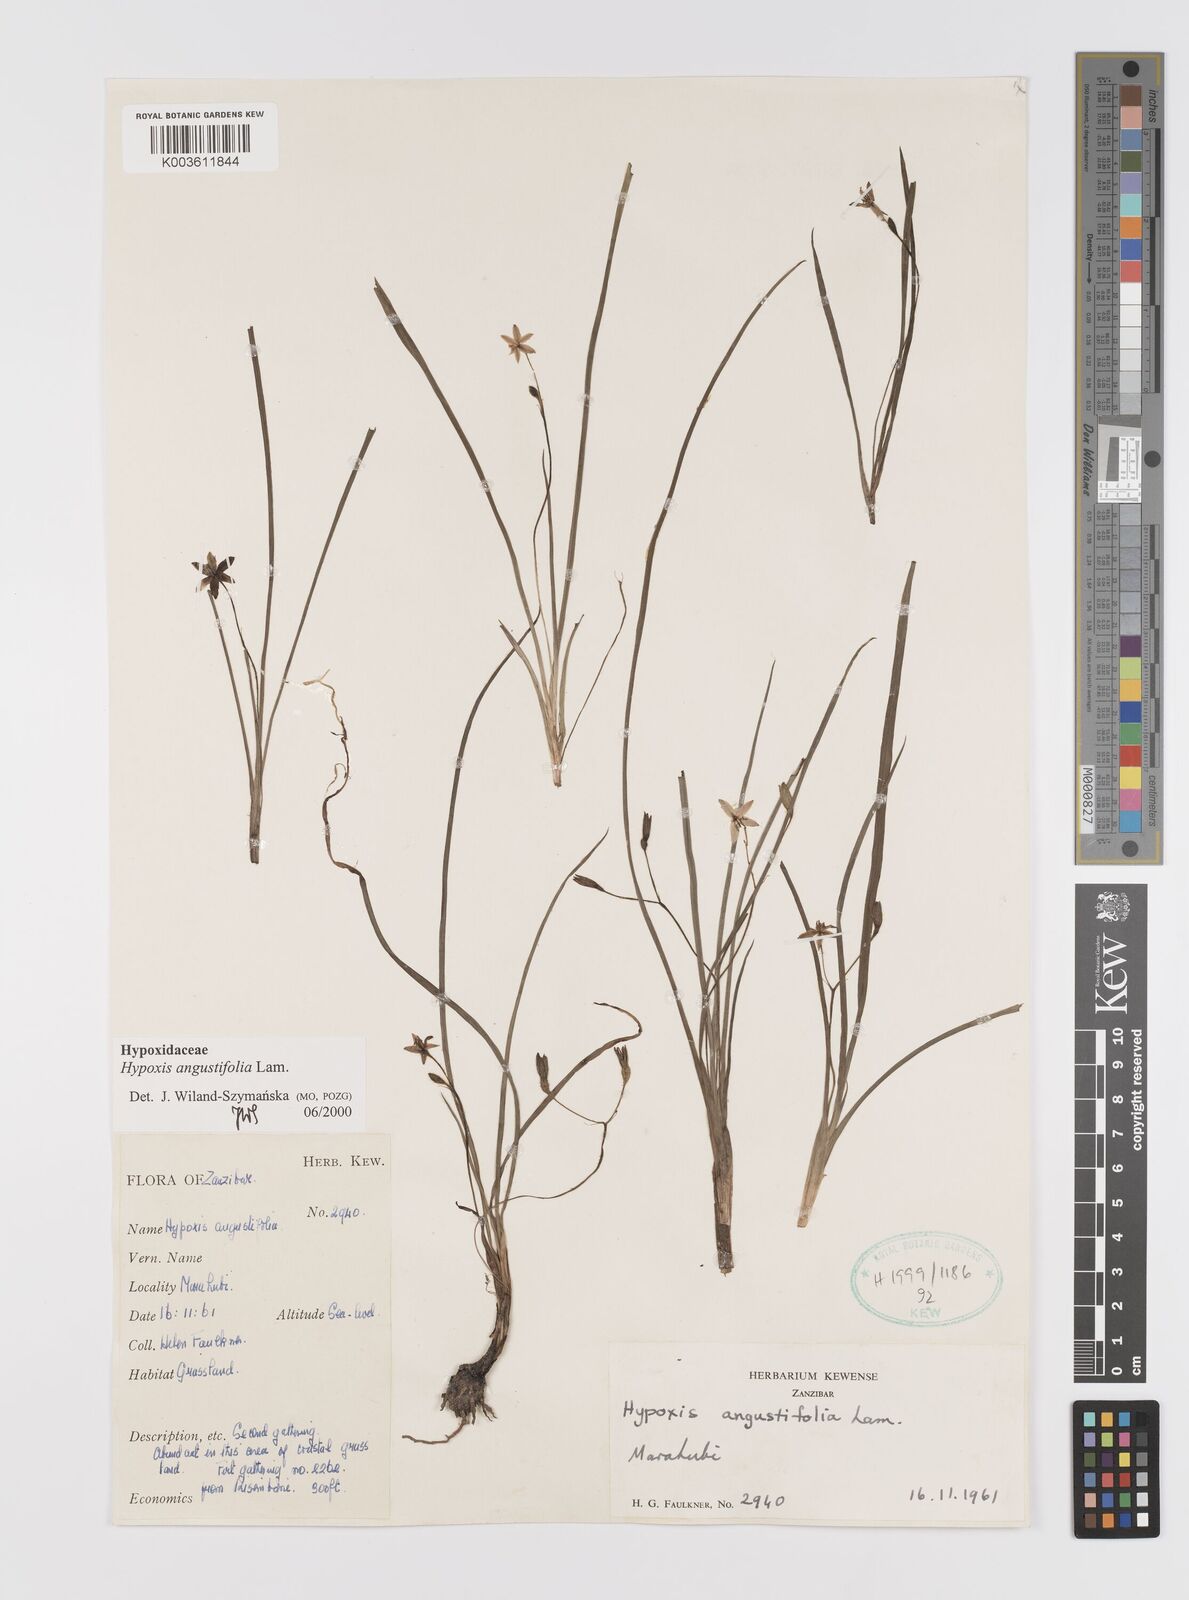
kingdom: Plantae
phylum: Tracheophyta
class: Liliopsida
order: Asparagales
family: Hypoxidaceae
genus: Hypoxis
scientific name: Hypoxis angustifolia
